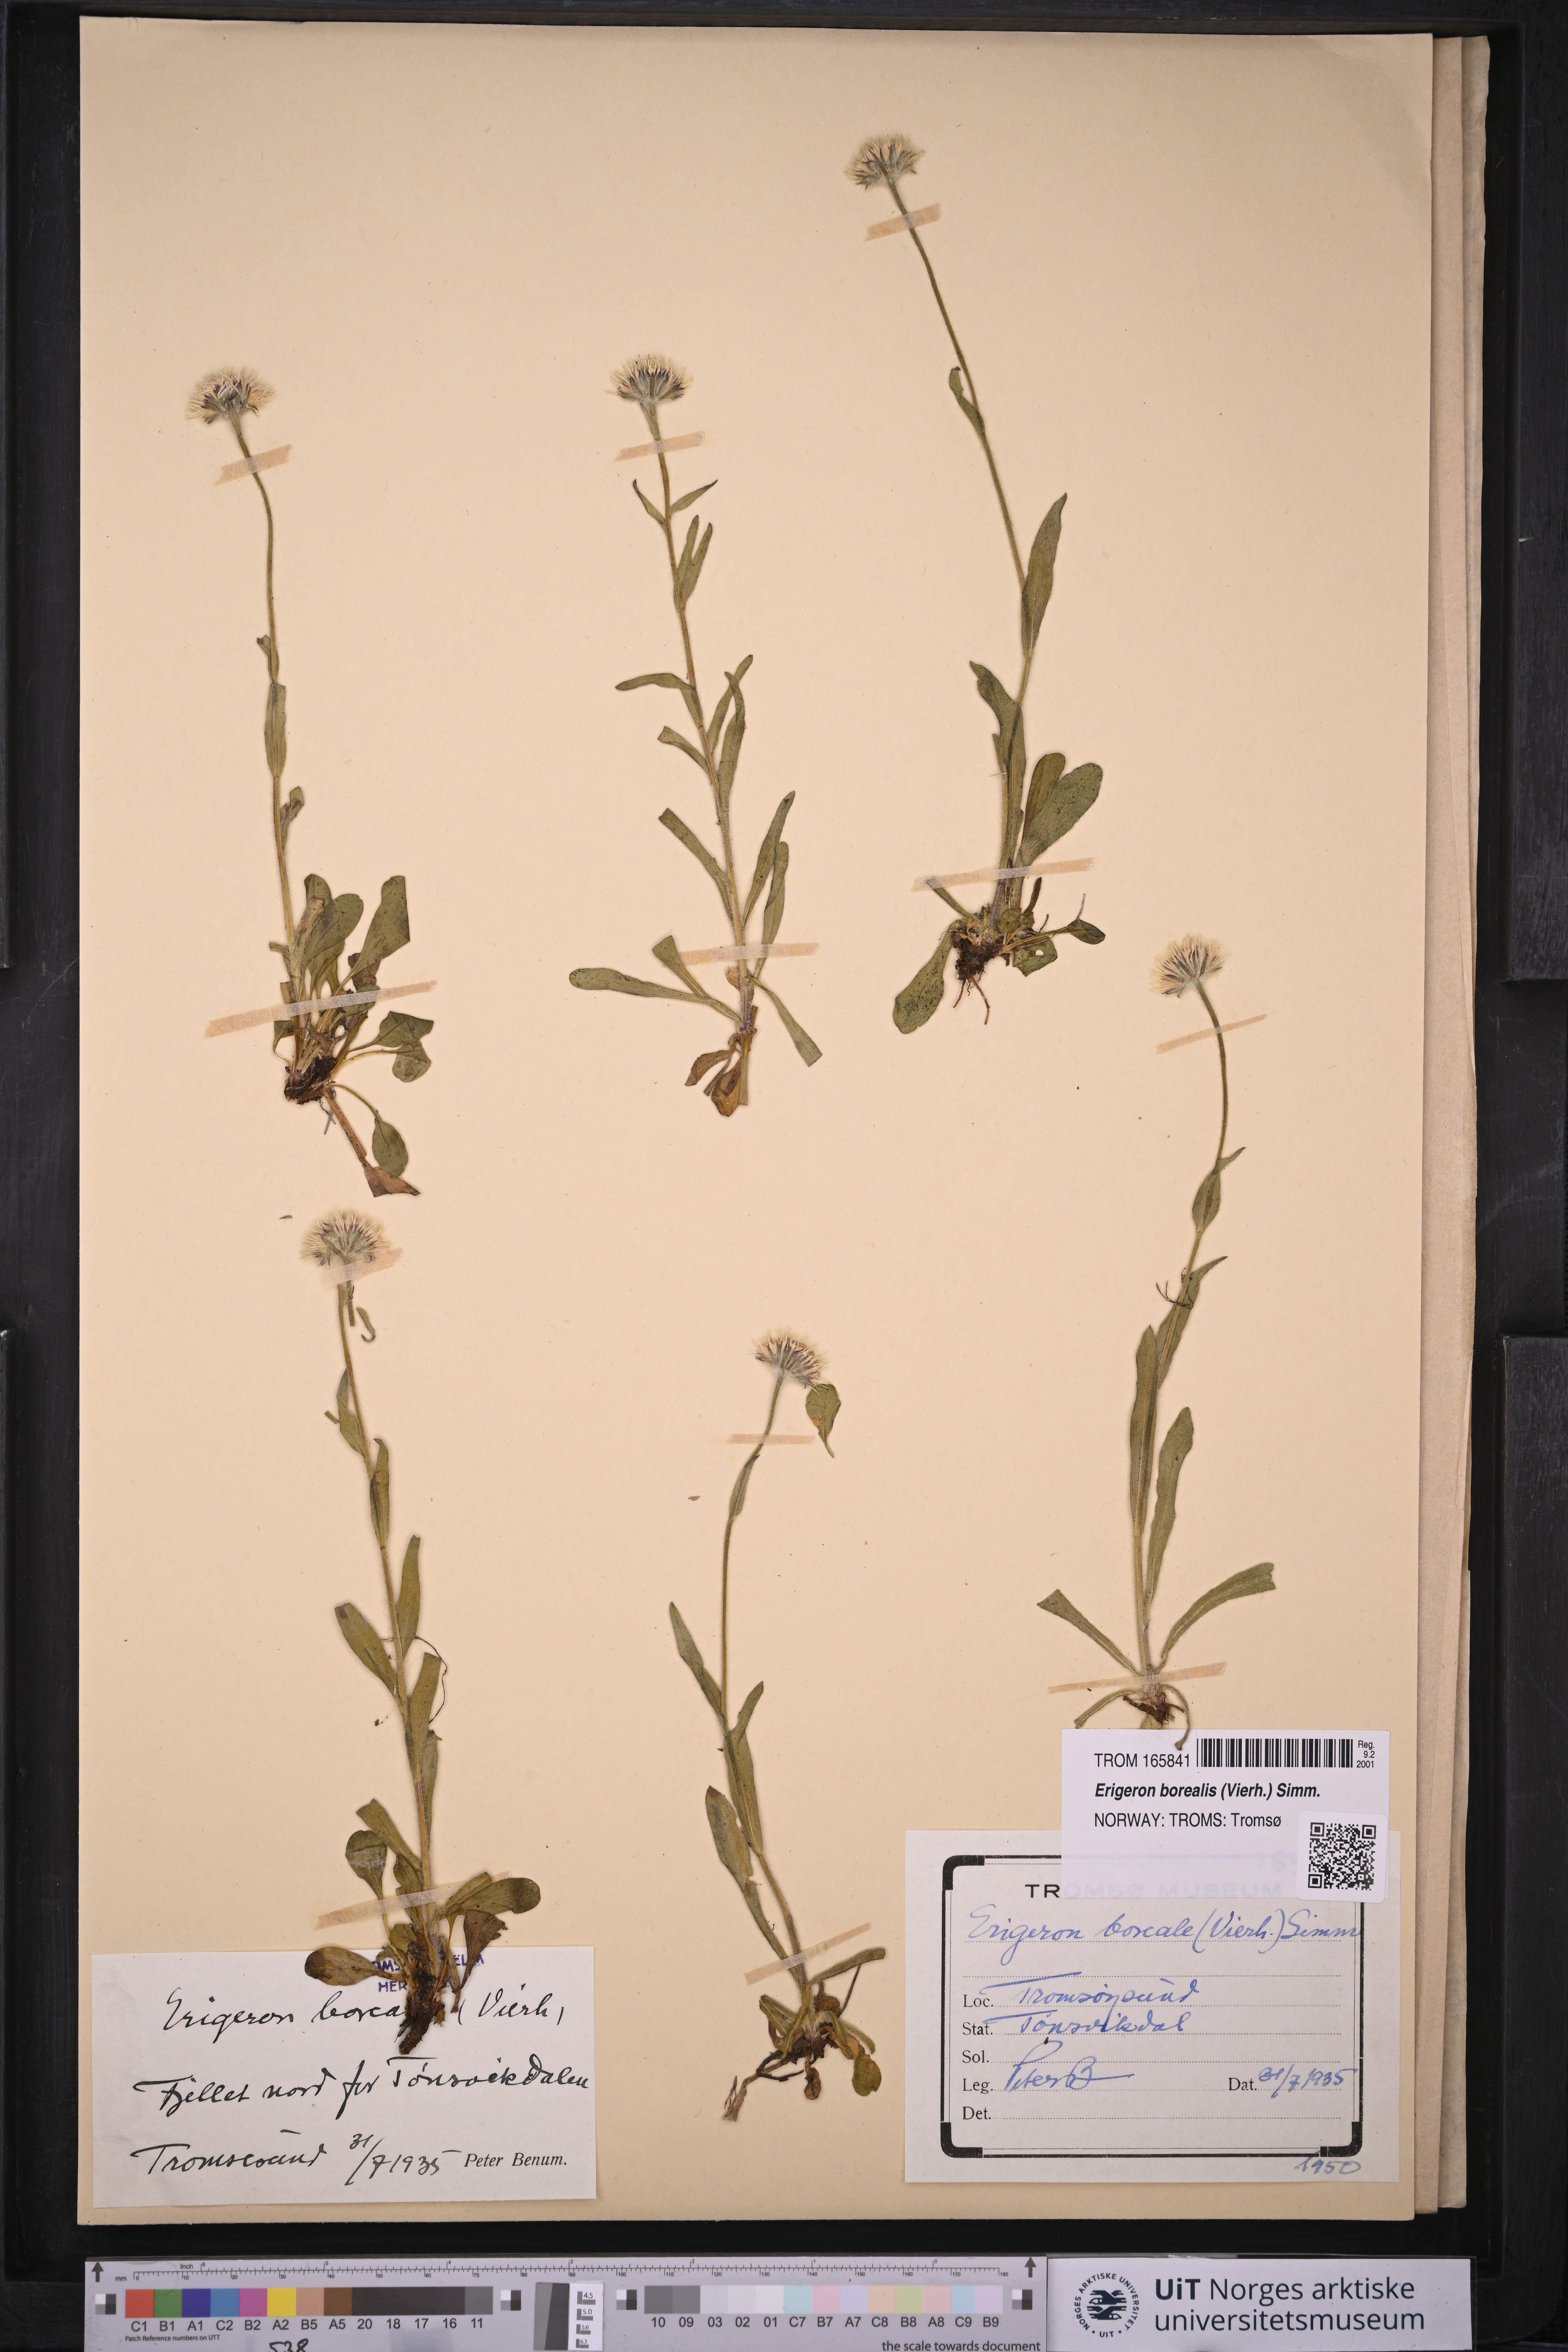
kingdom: Plantae
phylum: Tracheophyta
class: Magnoliopsida
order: Asterales
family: Asteraceae
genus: Erigeron
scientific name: Erigeron borealis
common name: Alpine fleabane
